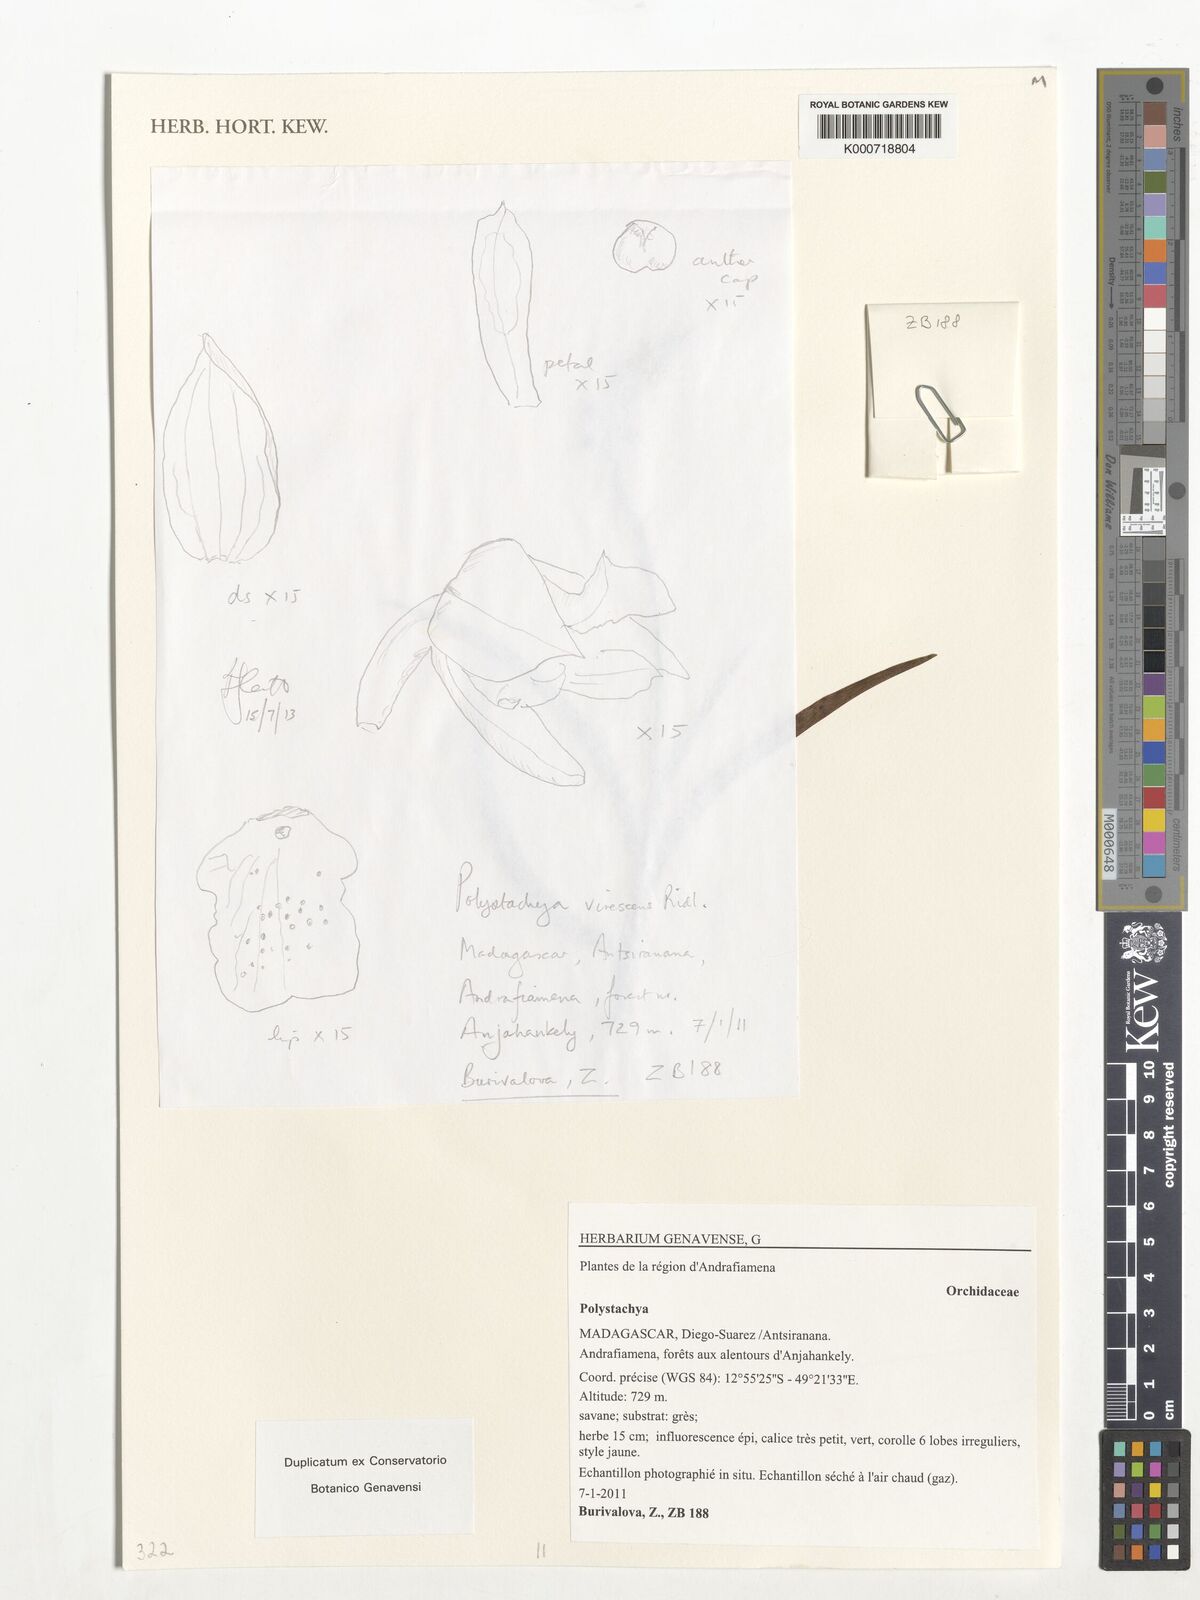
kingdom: Plantae
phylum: Tracheophyta
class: Liliopsida
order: Asparagales
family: Orchidaceae
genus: Polystachya
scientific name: Polystachya virescens
